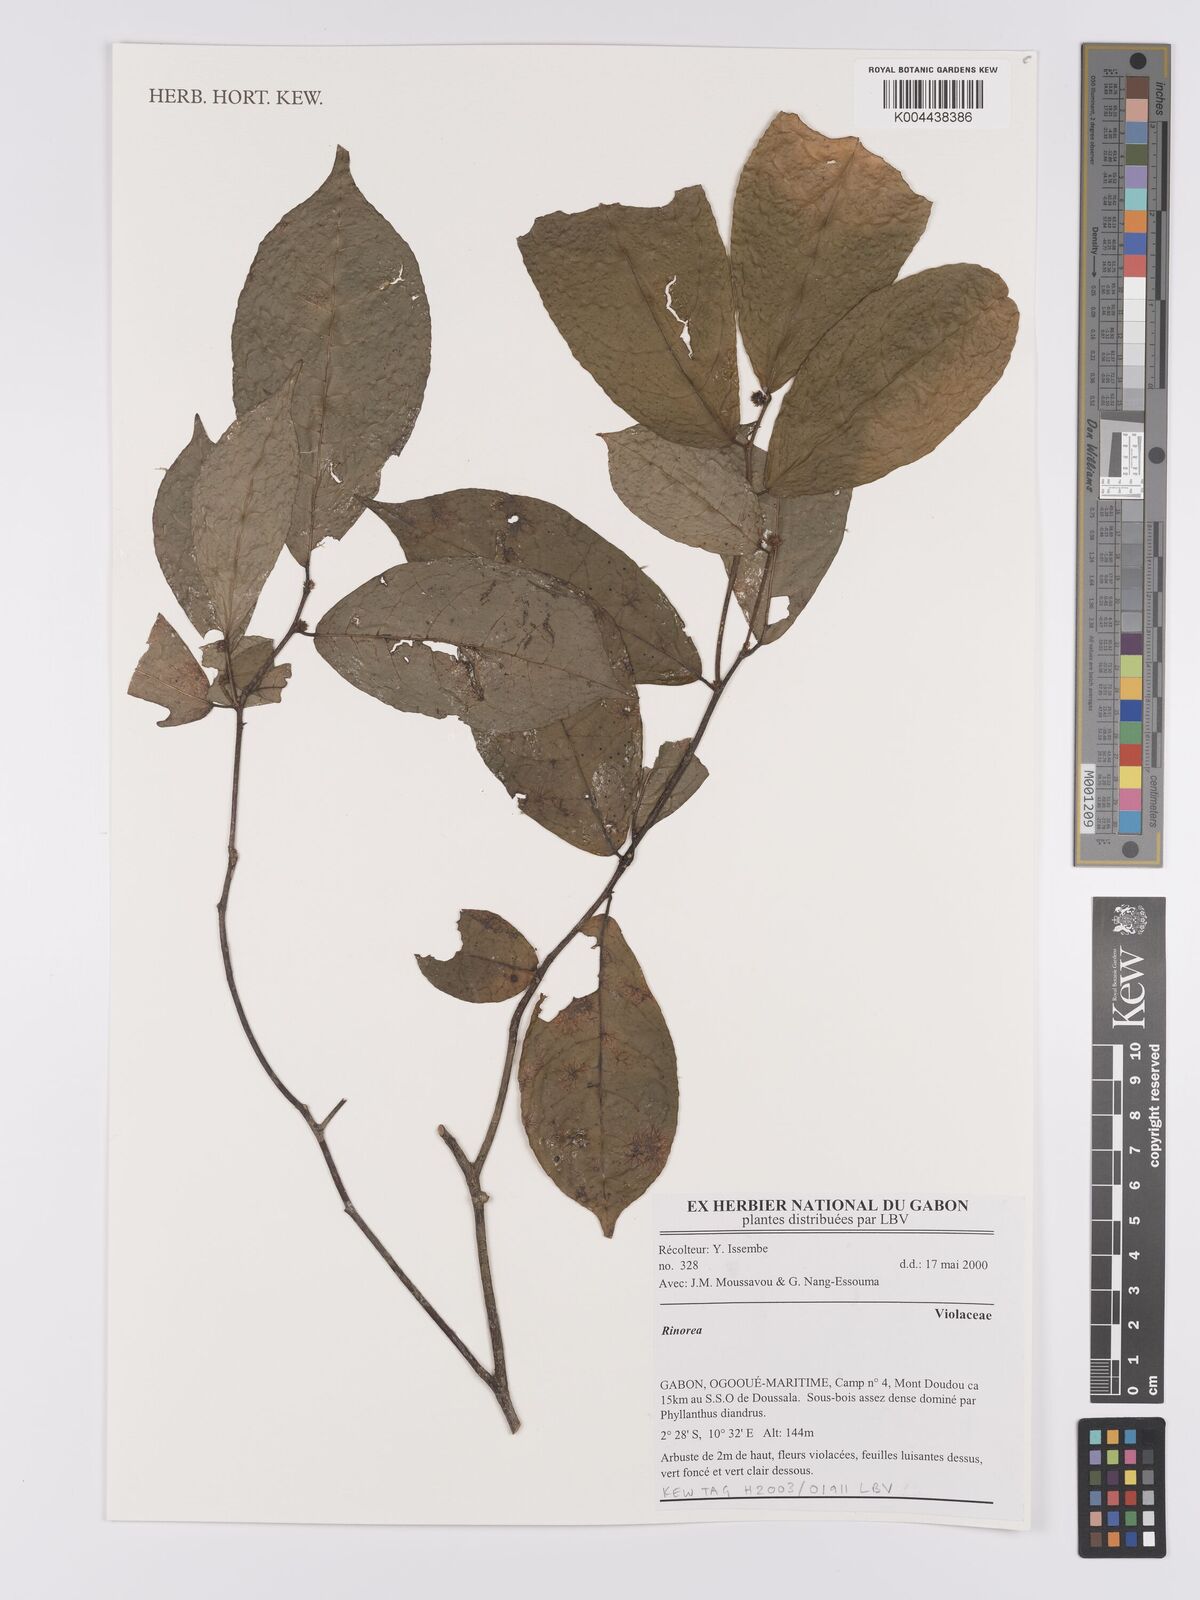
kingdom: Plantae
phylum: Tracheophyta
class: Magnoliopsida
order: Malpighiales
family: Violaceae
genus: Rinorea
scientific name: Rinorea
